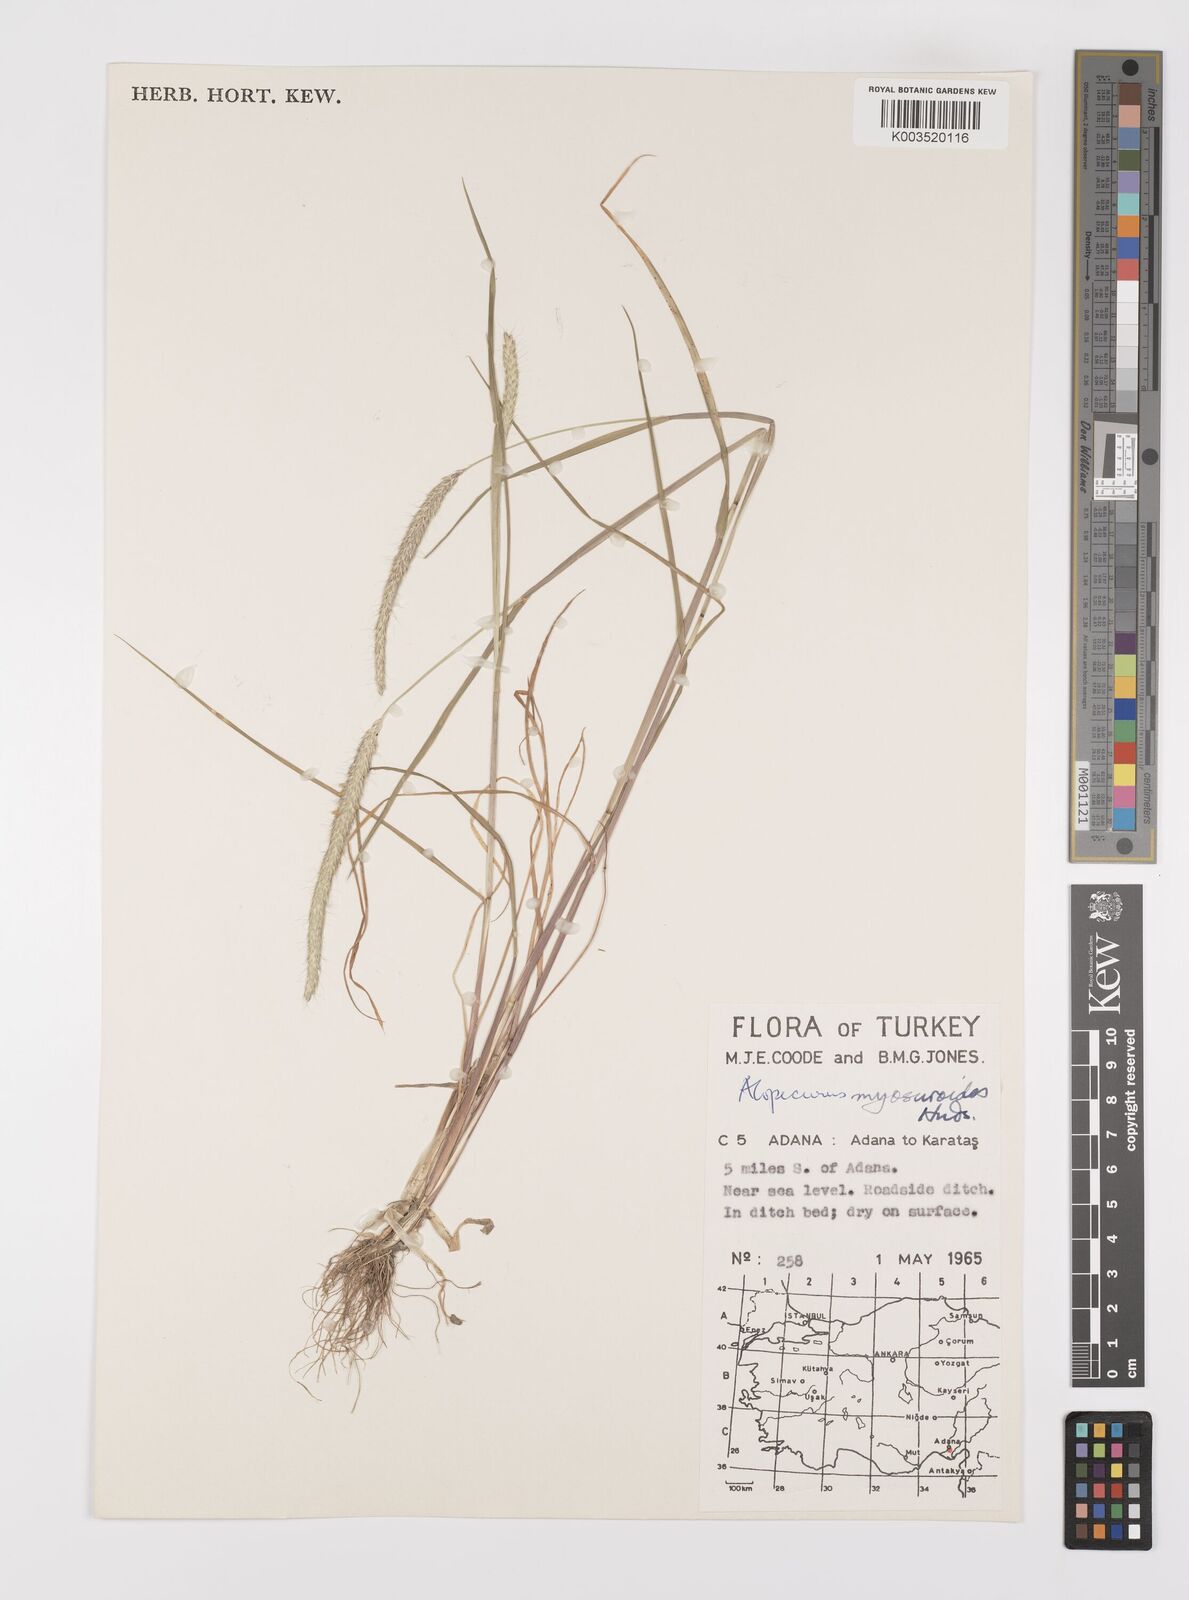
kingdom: Plantae
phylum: Tracheophyta
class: Liliopsida
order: Poales
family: Poaceae
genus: Alopecurus
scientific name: Alopecurus myosuroides
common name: Black-grass
